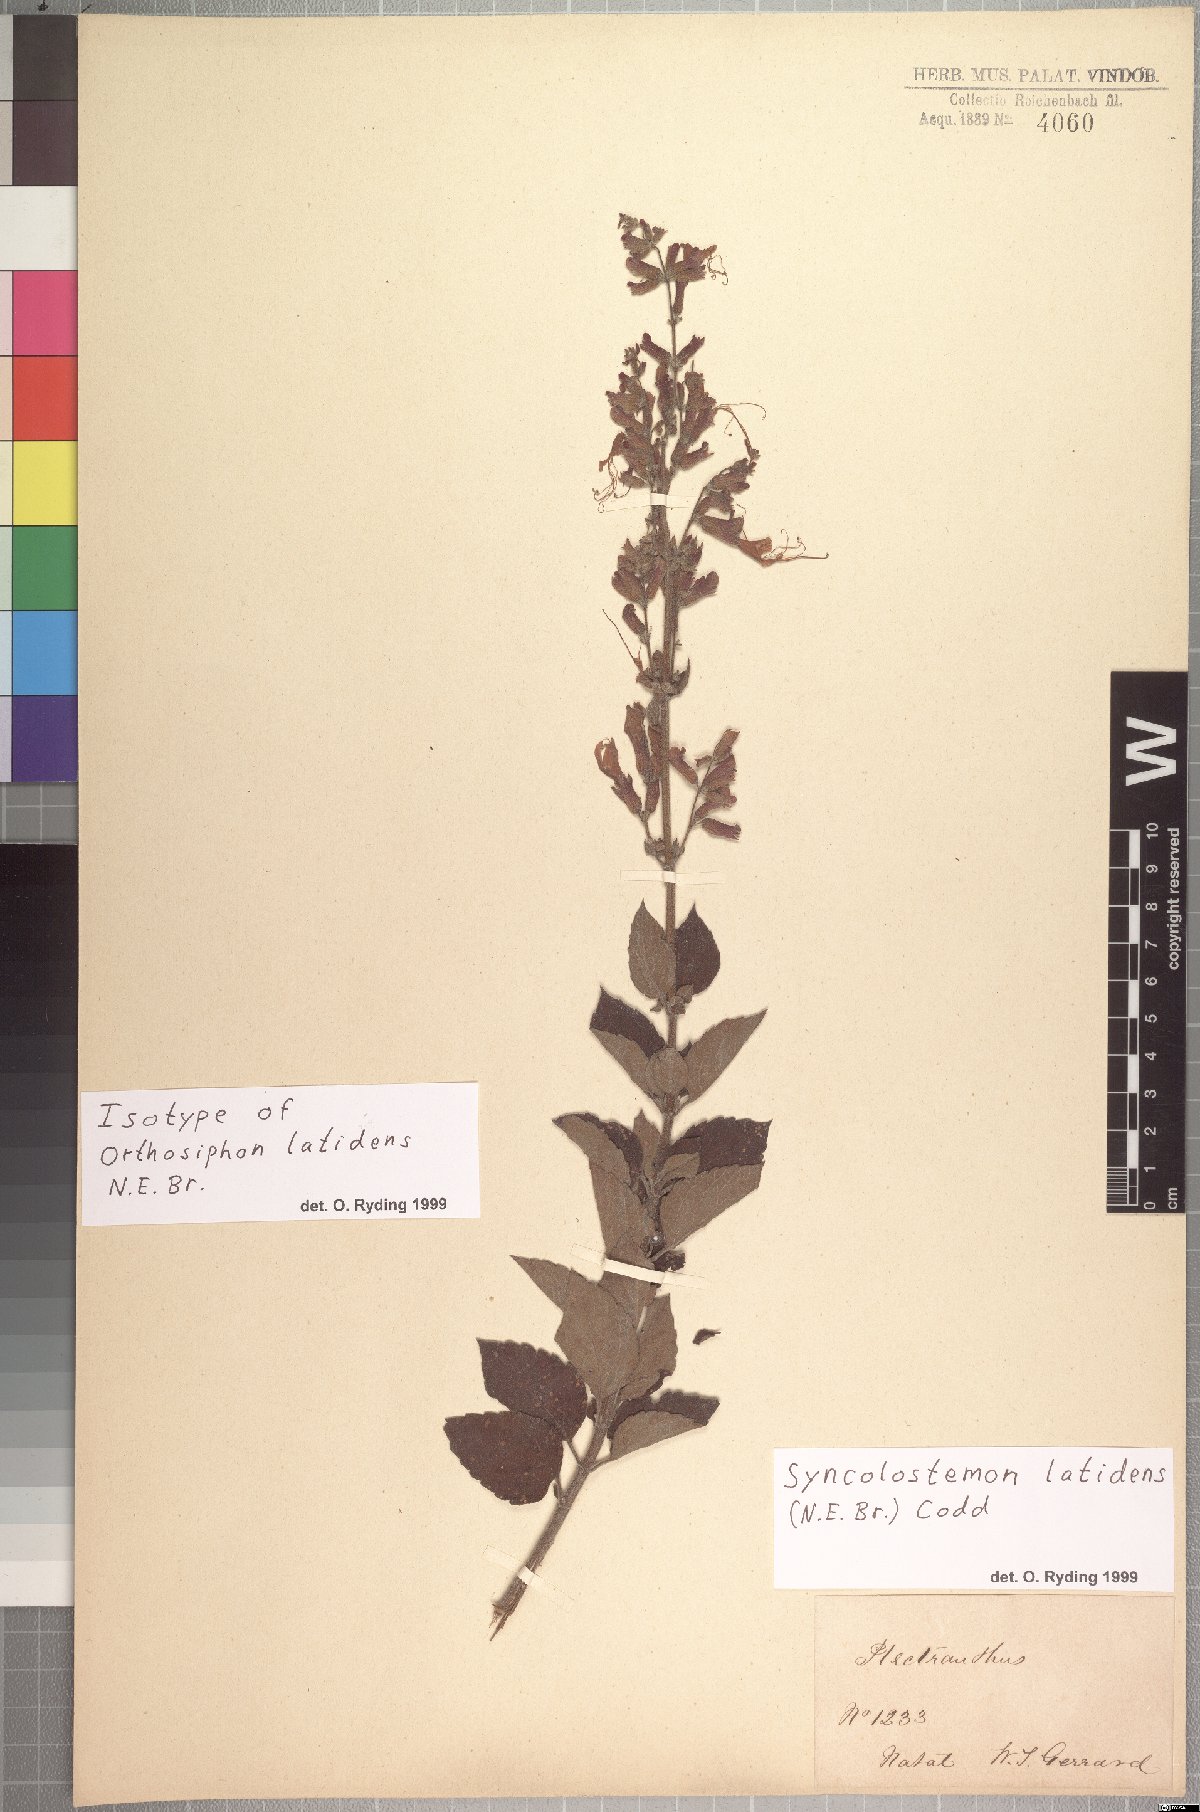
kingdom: Plantae
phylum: Tracheophyta
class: Magnoliopsida
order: Lamiales
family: Lamiaceae
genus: Syncolostemon
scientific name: Syncolostemon latidens
